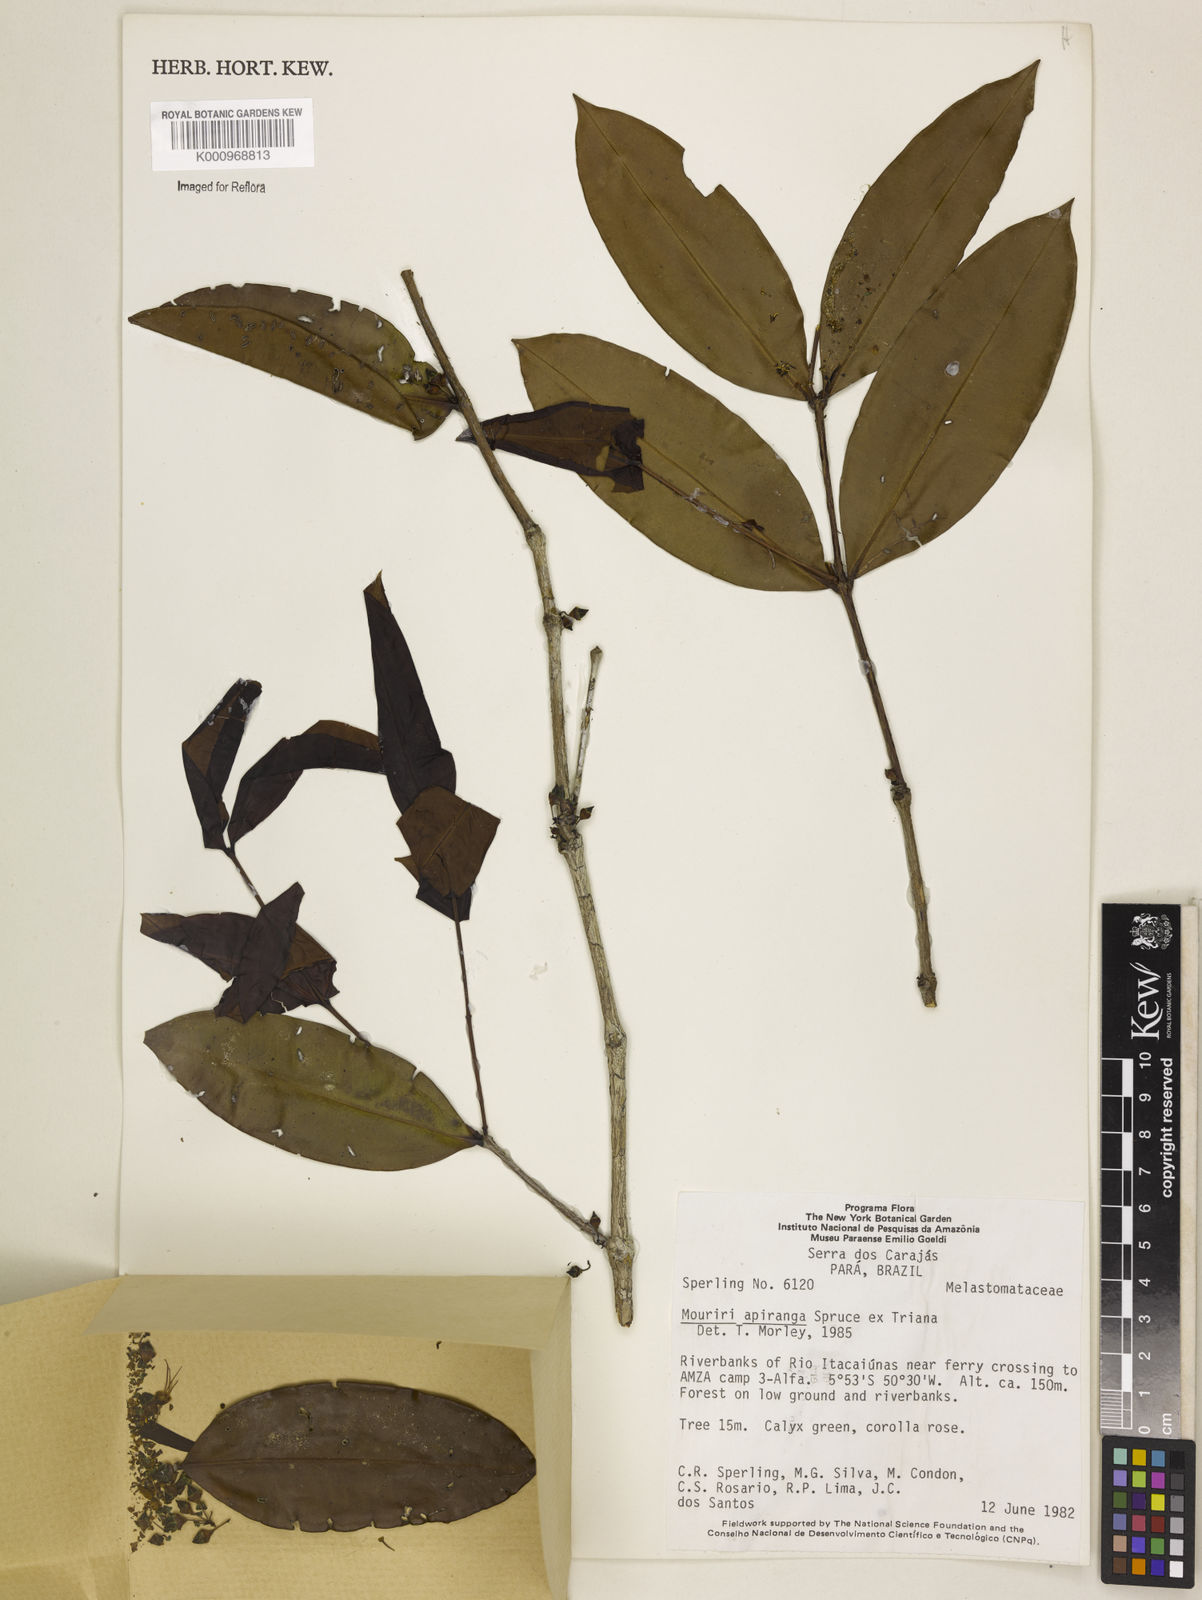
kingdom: Plantae
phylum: Tracheophyta
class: Magnoliopsida
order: Myrtales
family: Melastomataceae
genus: Mouriri
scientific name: Mouriri apiranga
